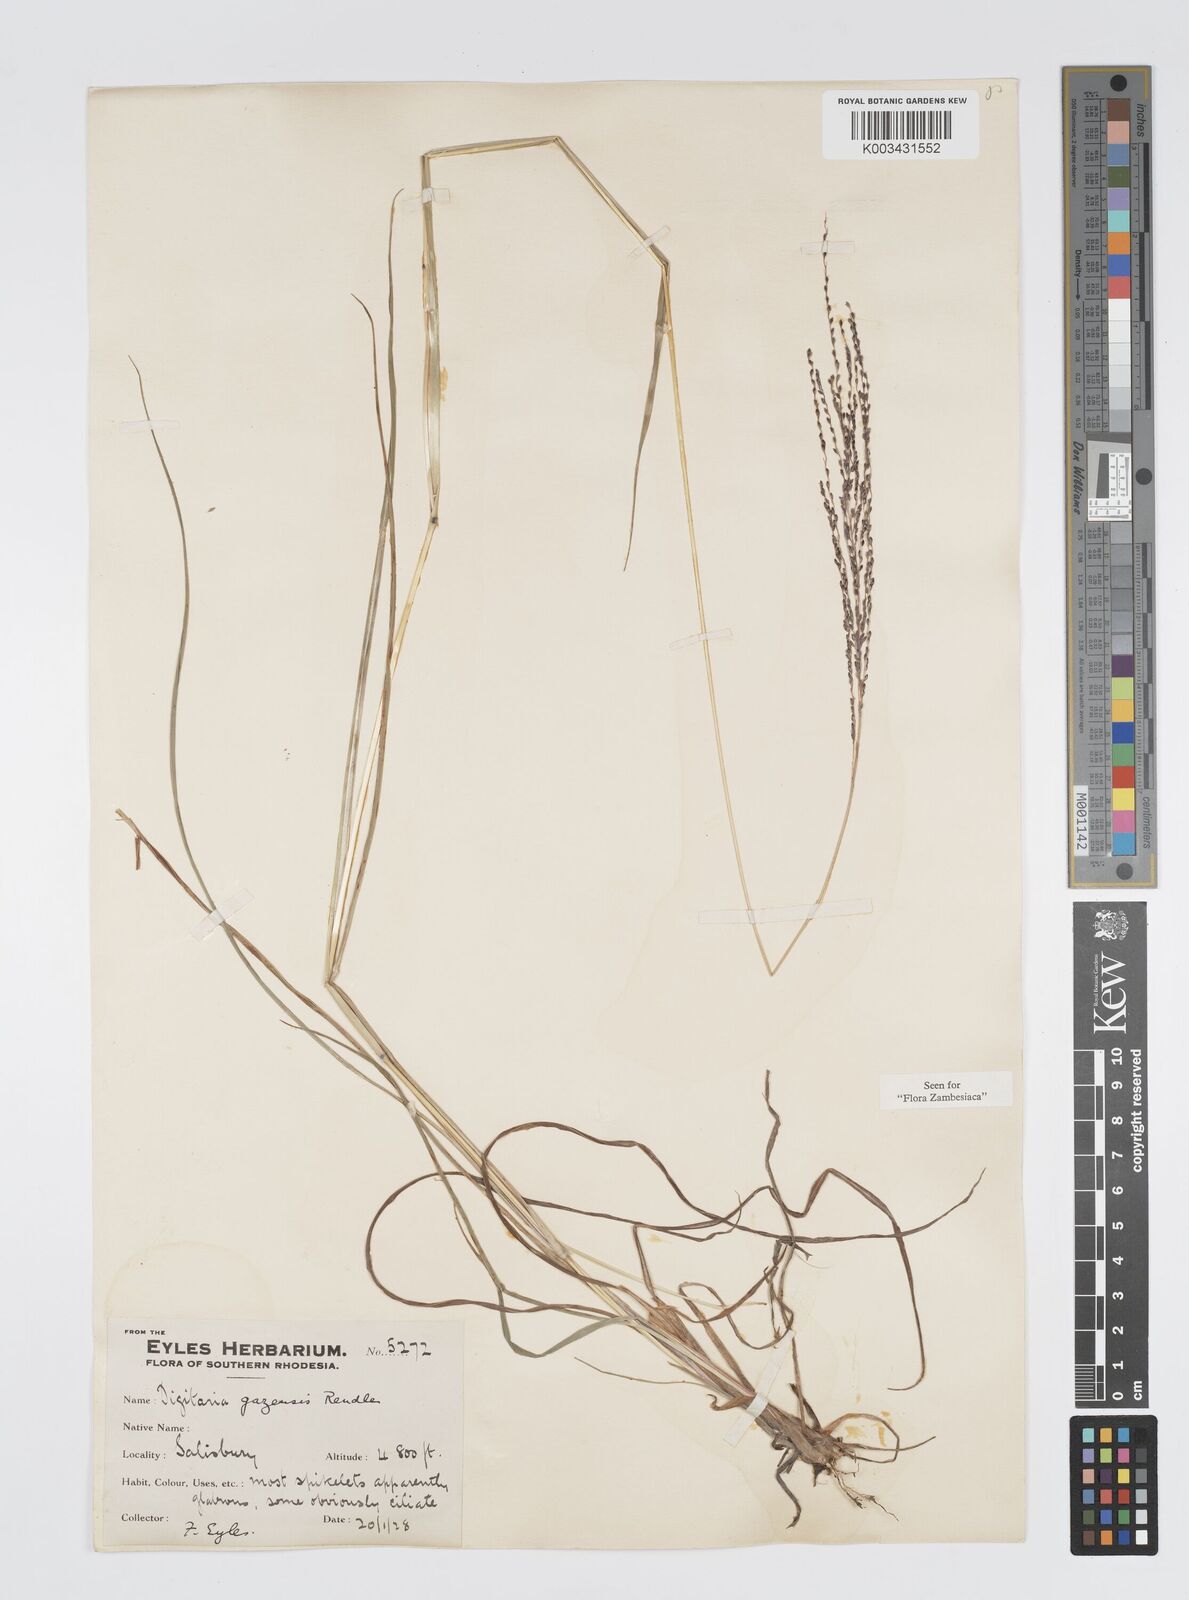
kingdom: Plantae
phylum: Tracheophyta
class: Liliopsida
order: Poales
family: Poaceae
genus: Digitaria
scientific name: Digitaria gazensis
